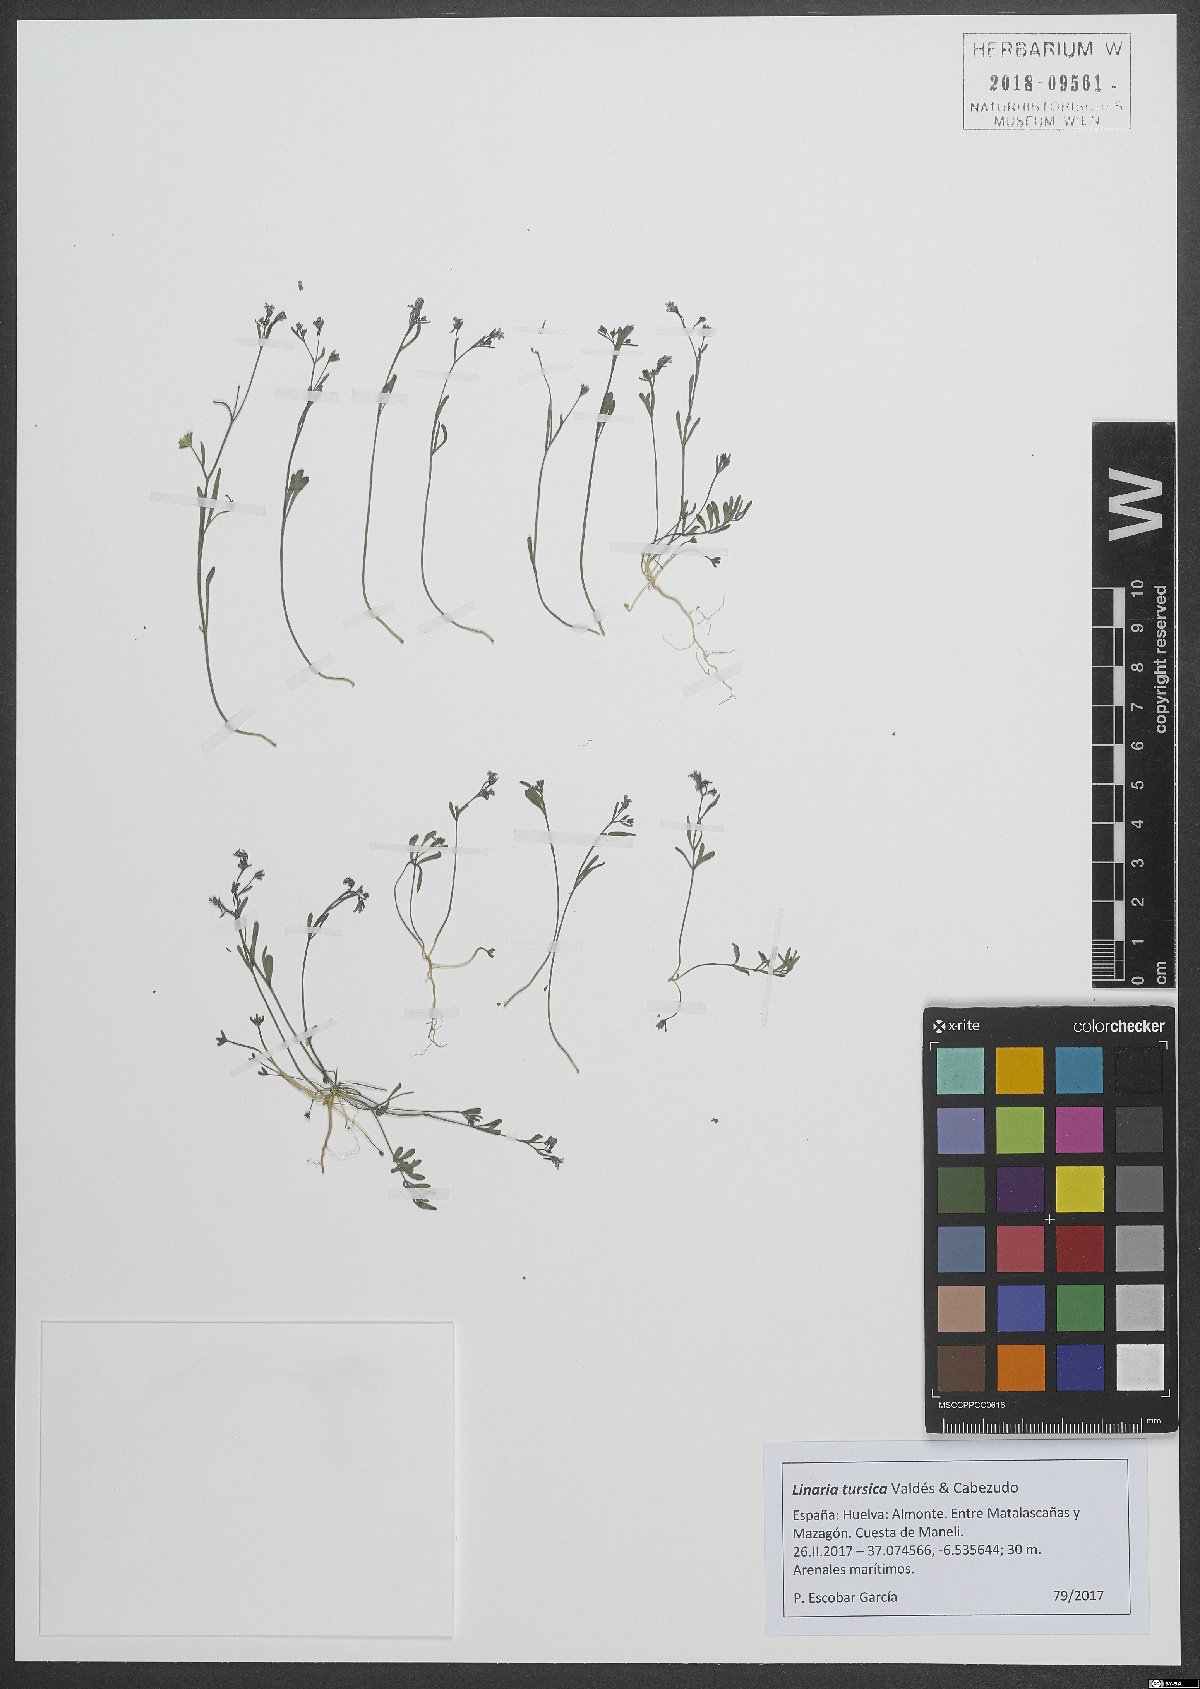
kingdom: Plantae
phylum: Tracheophyta
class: Magnoliopsida
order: Lamiales
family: Plantaginaceae
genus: Linaria
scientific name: Linaria tursica
